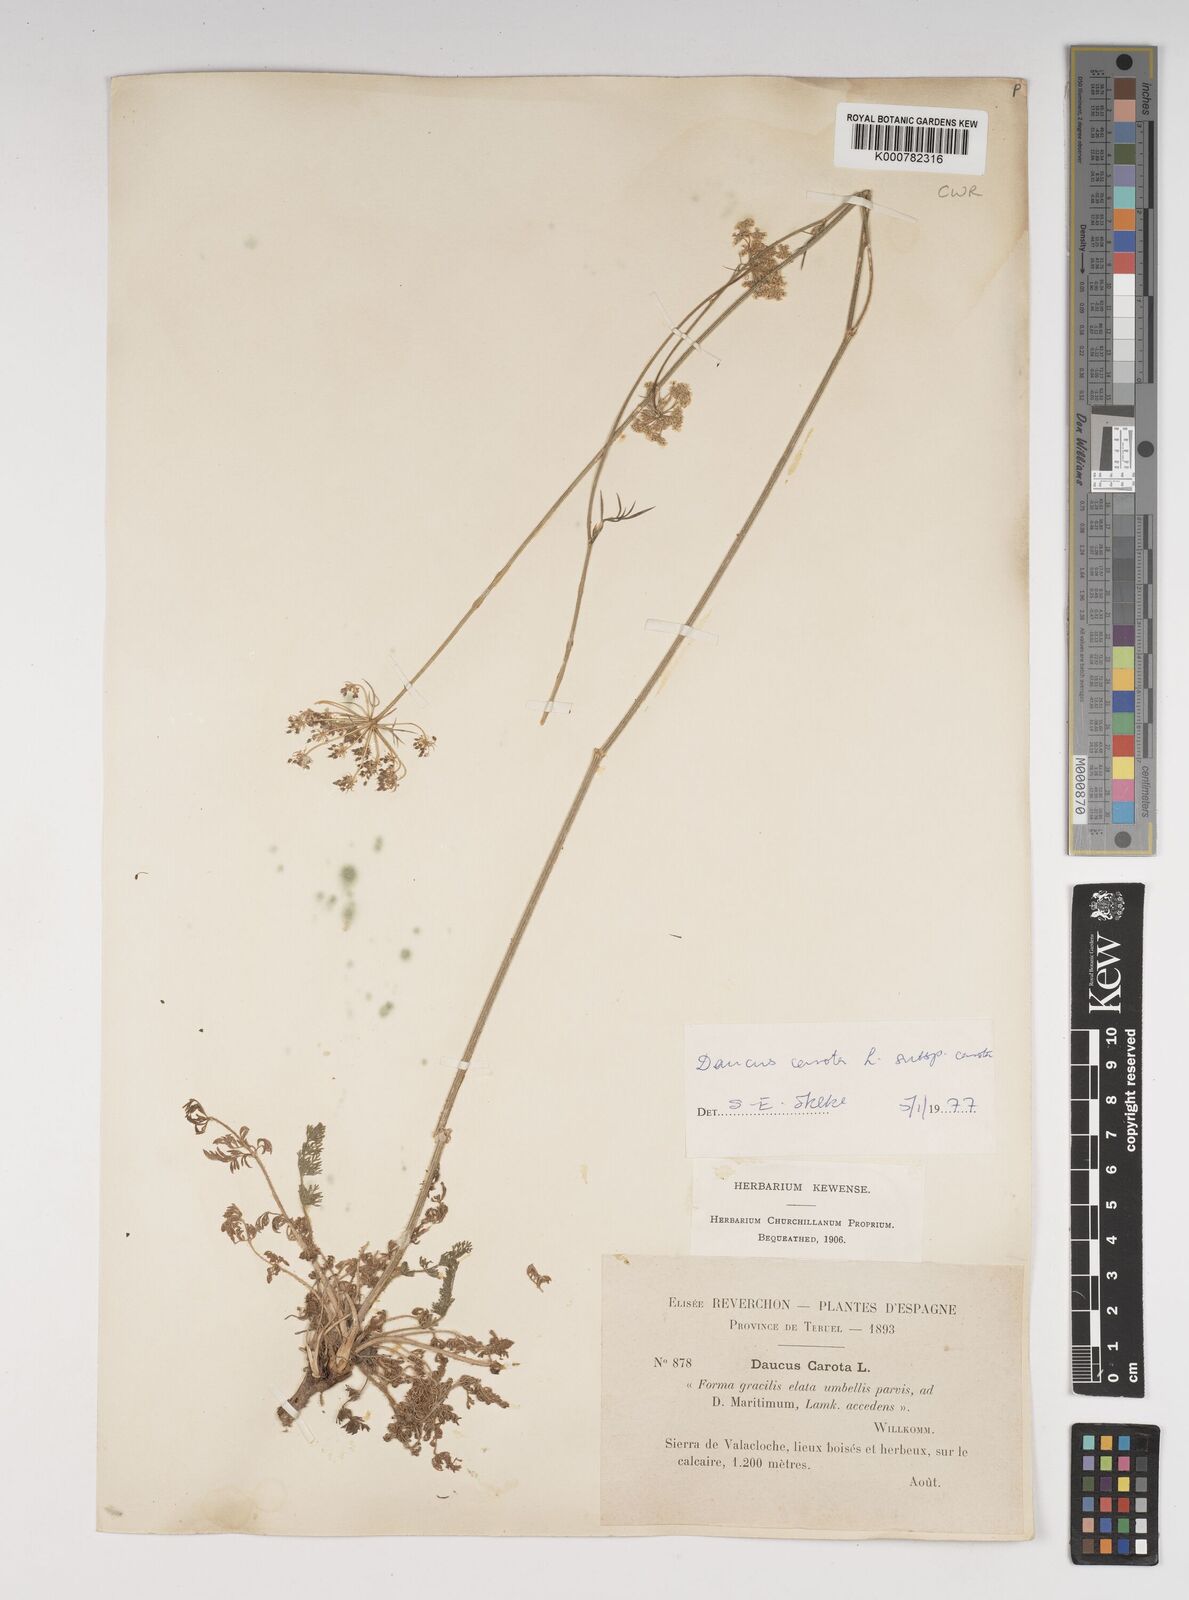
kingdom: Plantae
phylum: Tracheophyta
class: Magnoliopsida
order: Apiales
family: Apiaceae
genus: Daucus
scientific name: Daucus carota
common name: Wild carrot
